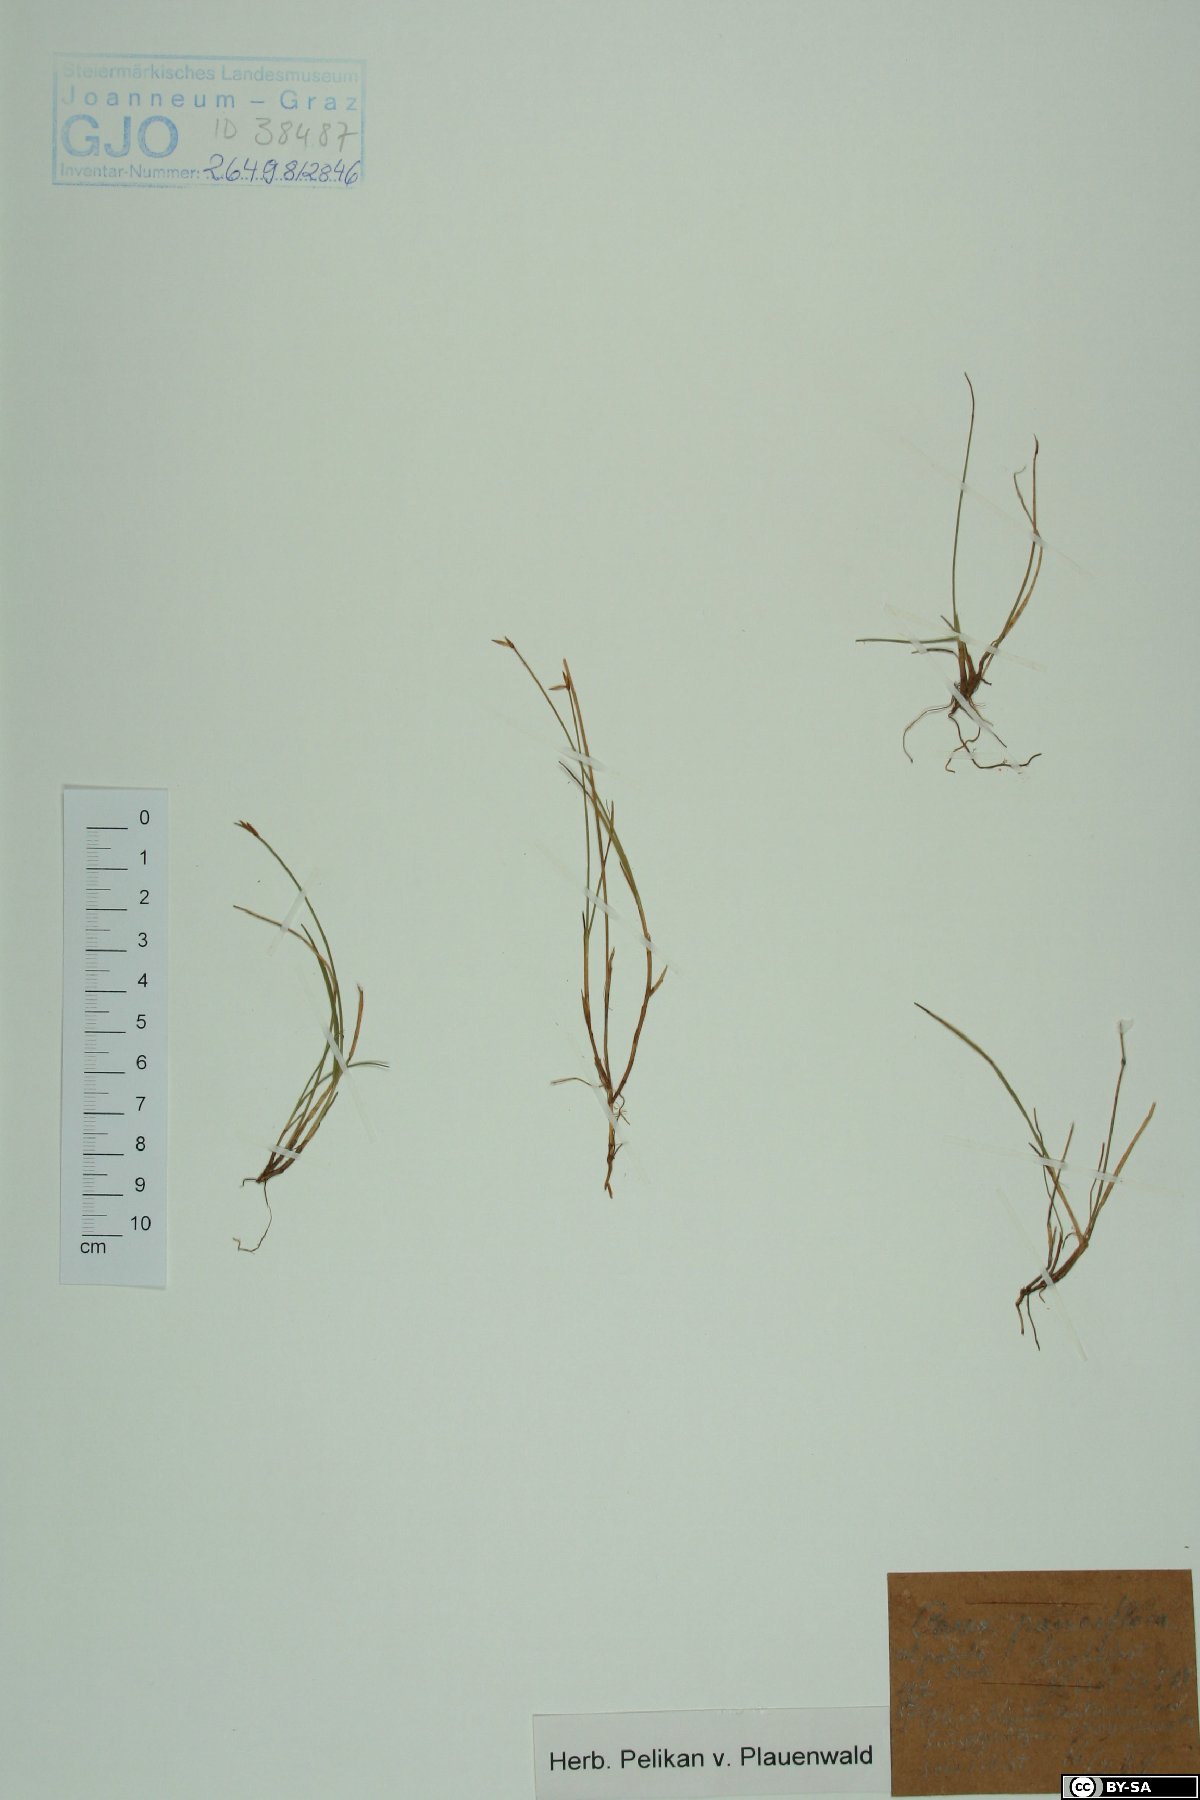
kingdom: Plantae
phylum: Tracheophyta
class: Liliopsida
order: Poales
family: Cyperaceae
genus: Carex
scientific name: Carex pauciflora
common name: Few-flowered sedge
